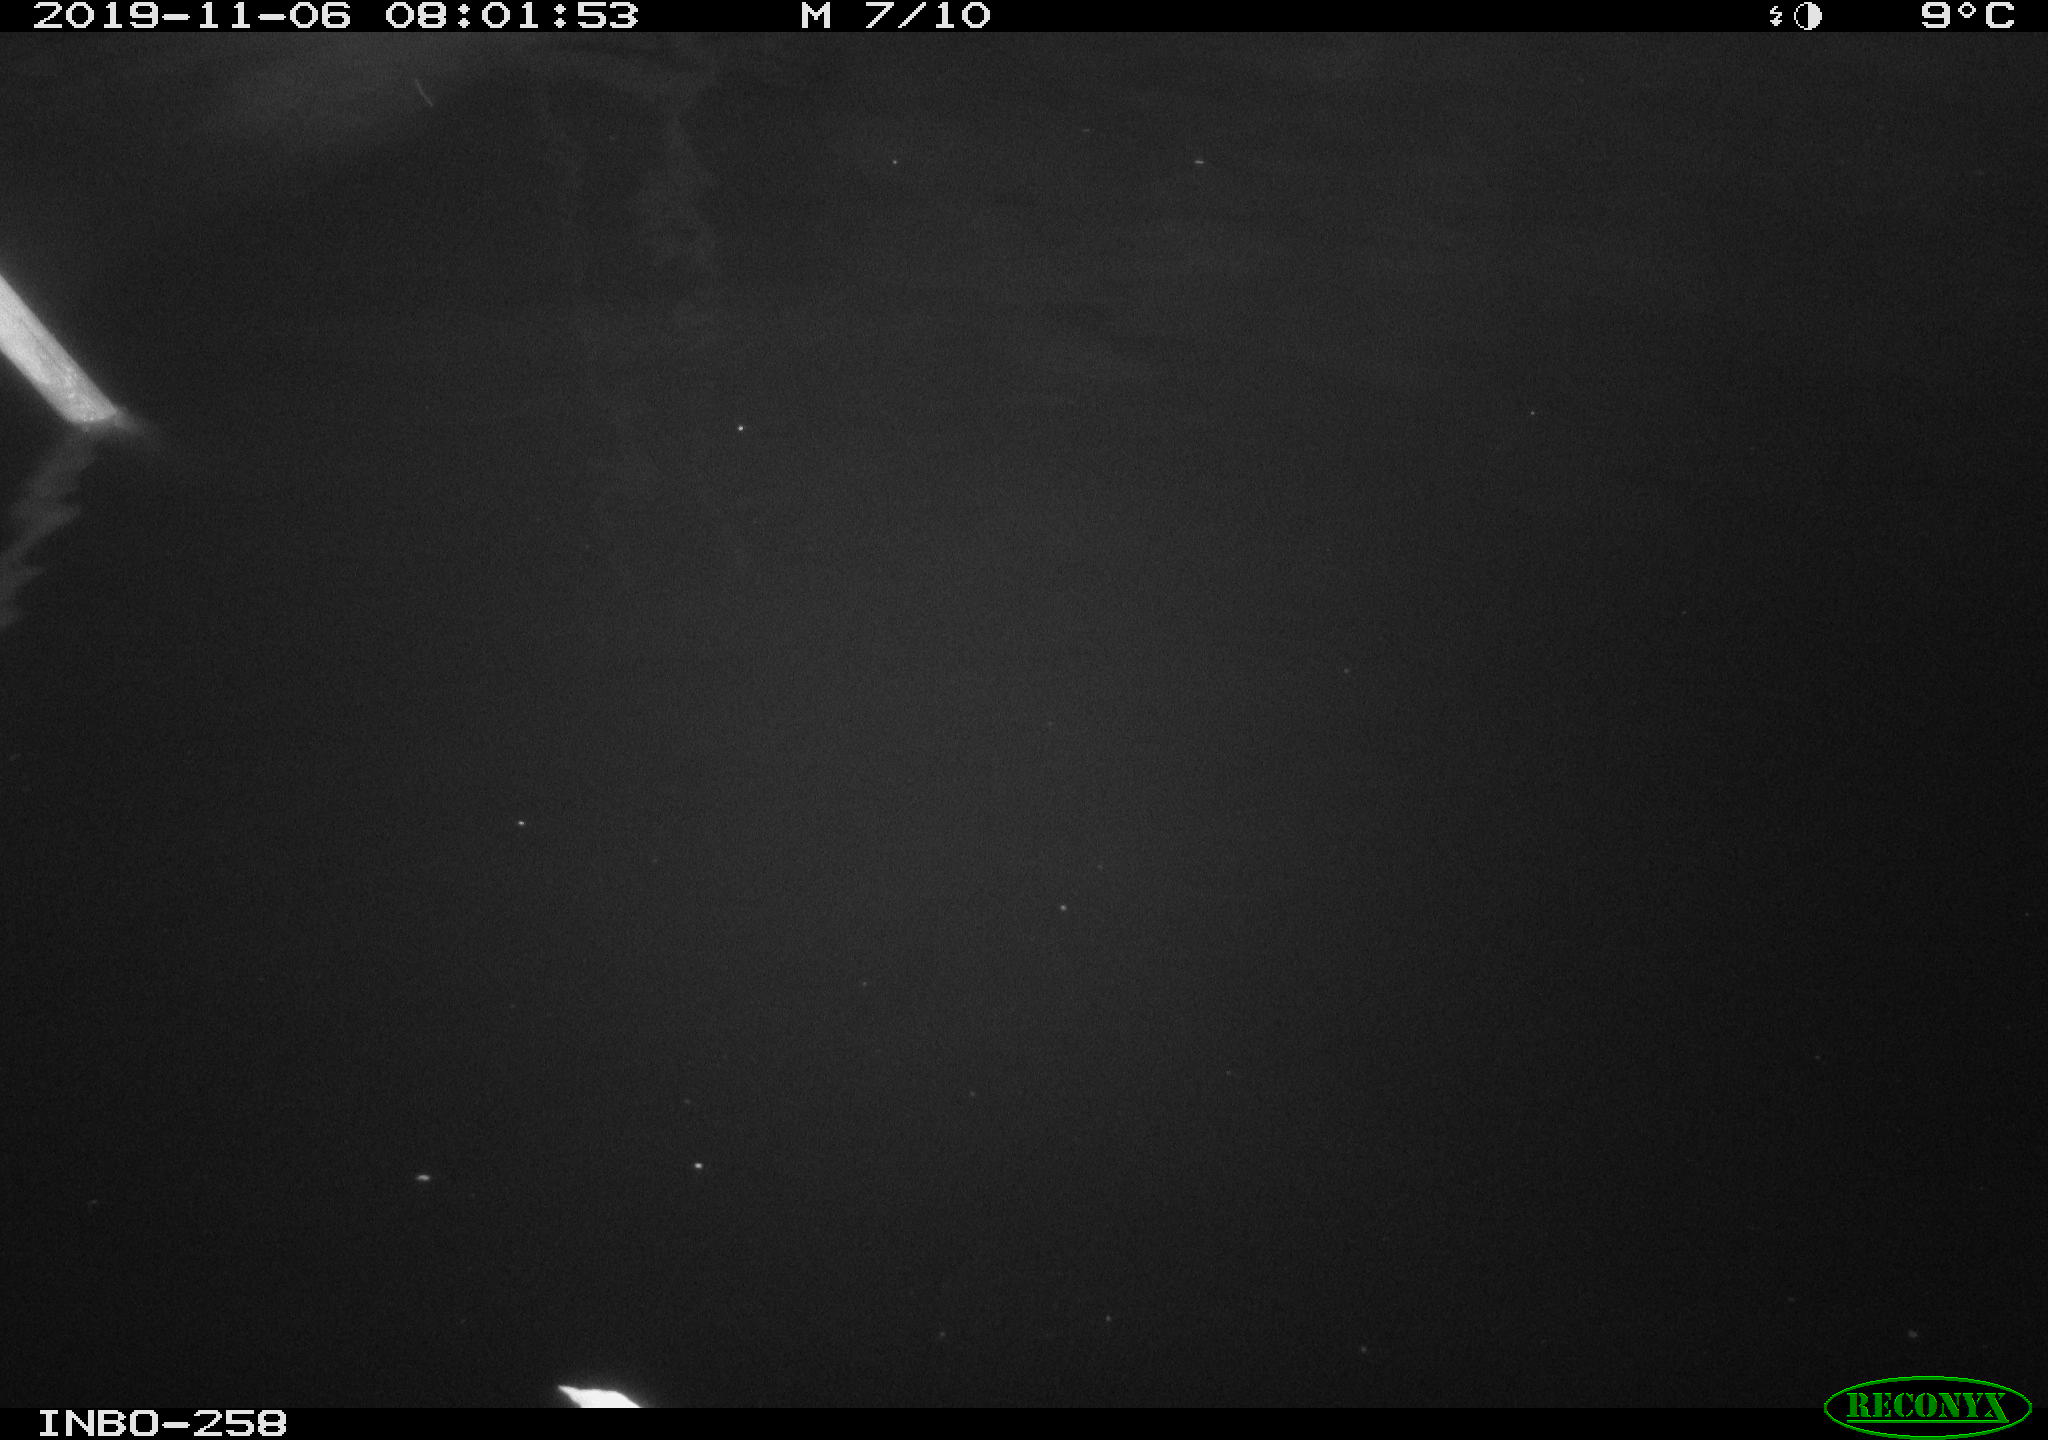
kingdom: Animalia
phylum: Chordata
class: Aves
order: Anseriformes
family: Anatidae
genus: Anas
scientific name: Anas platyrhynchos
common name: Mallard
